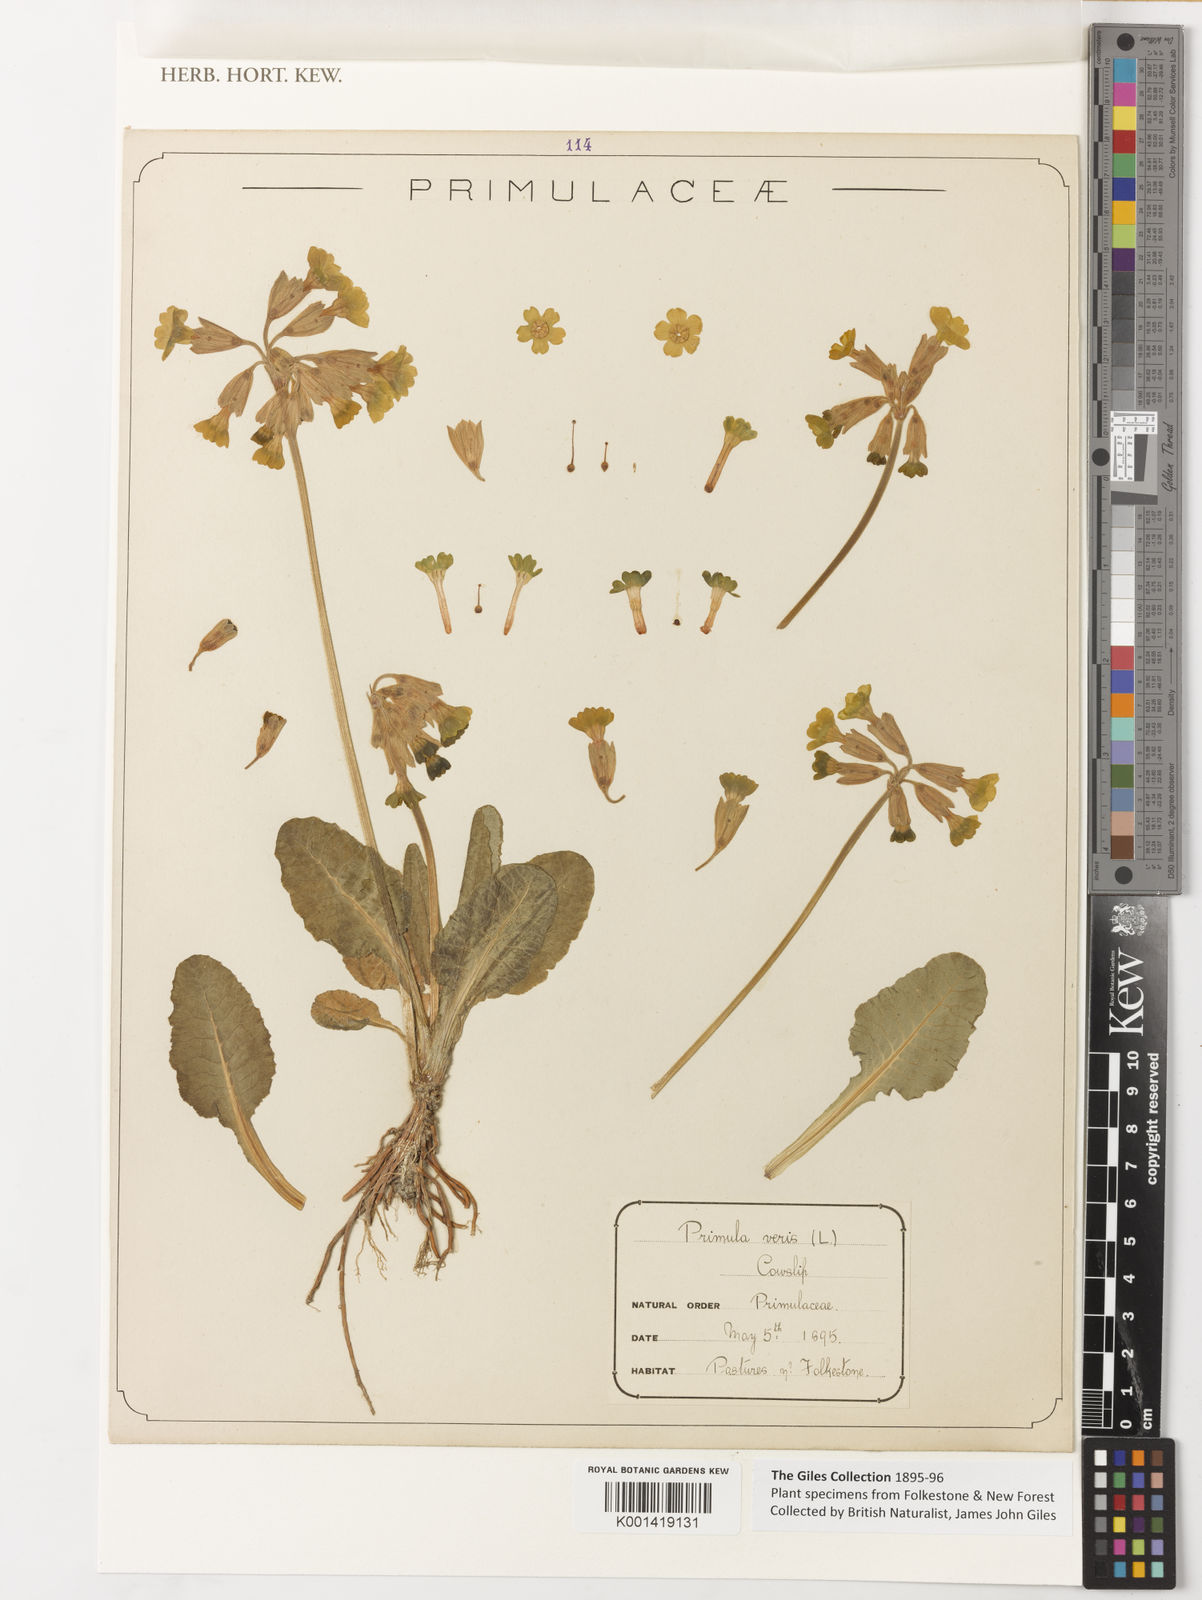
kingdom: Plantae
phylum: Tracheophyta
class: Magnoliopsida
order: Ericales
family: Primulaceae
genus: Primula
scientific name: Primula veris
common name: Cowslip
